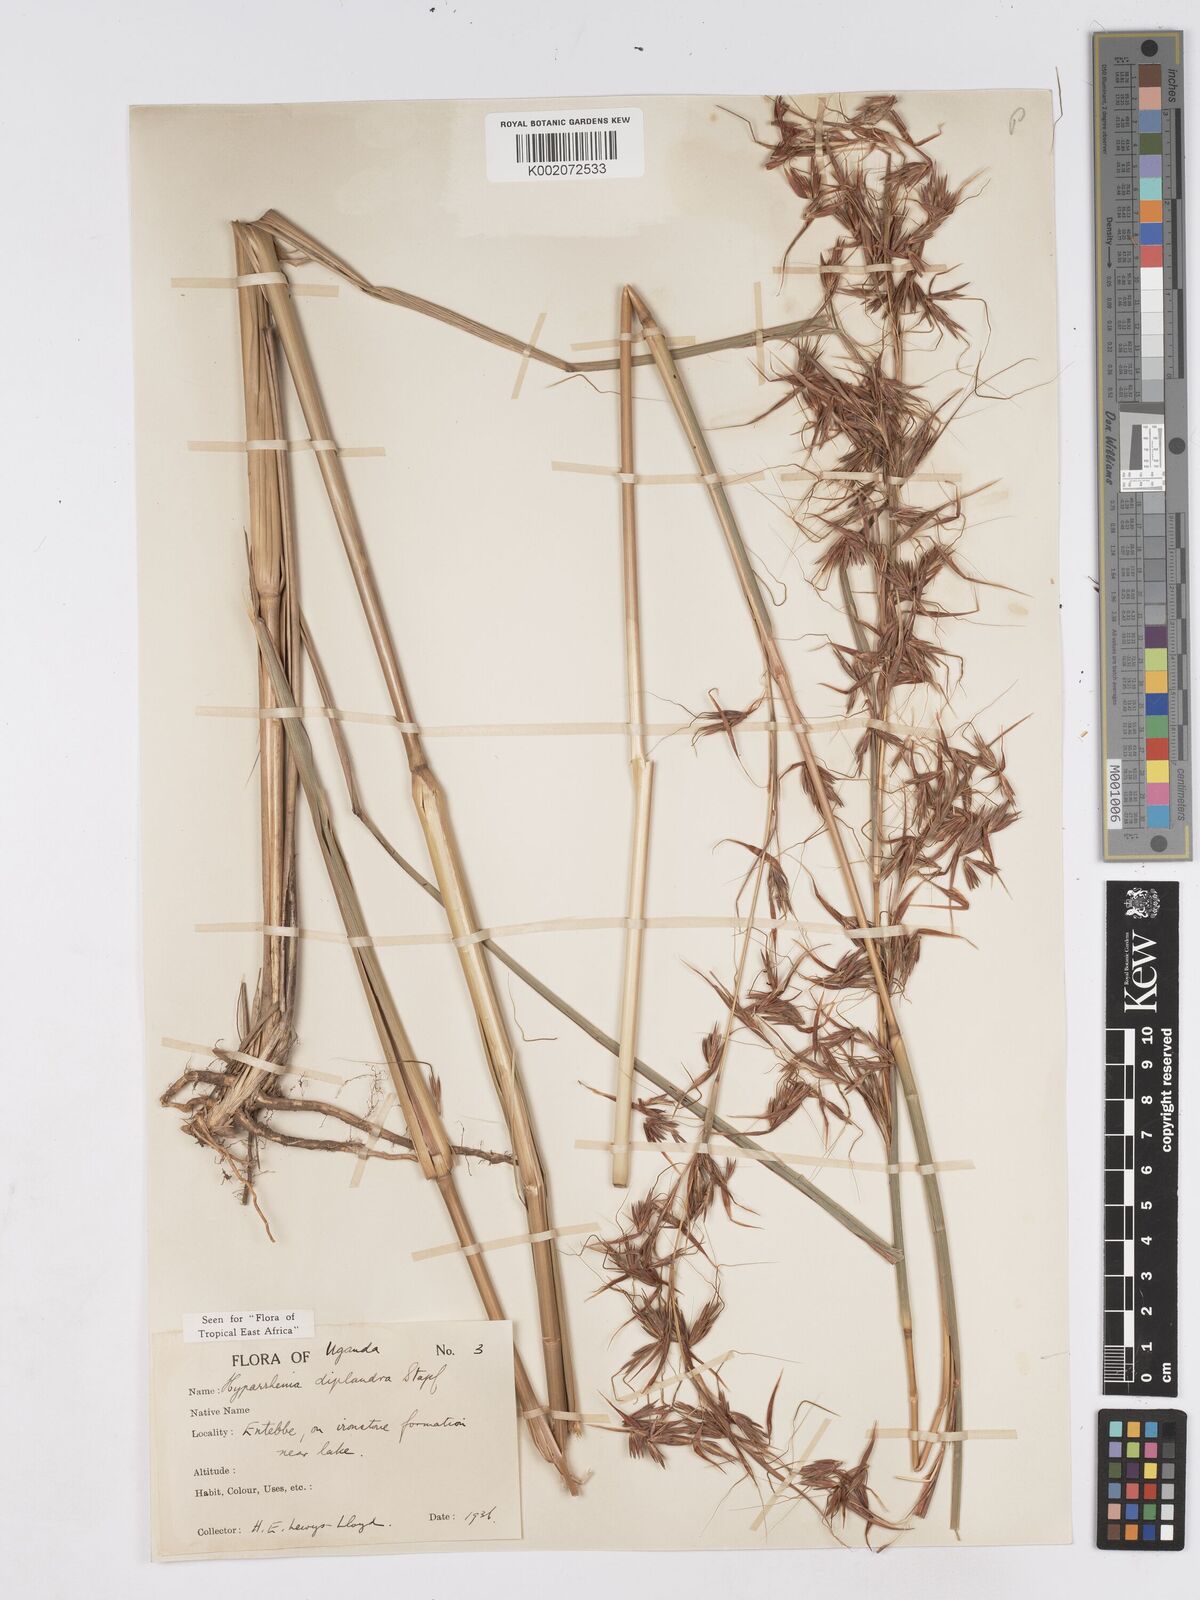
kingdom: Plantae
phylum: Tracheophyta
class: Liliopsida
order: Poales
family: Poaceae
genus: Hyparrhenia
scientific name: Hyparrhenia
